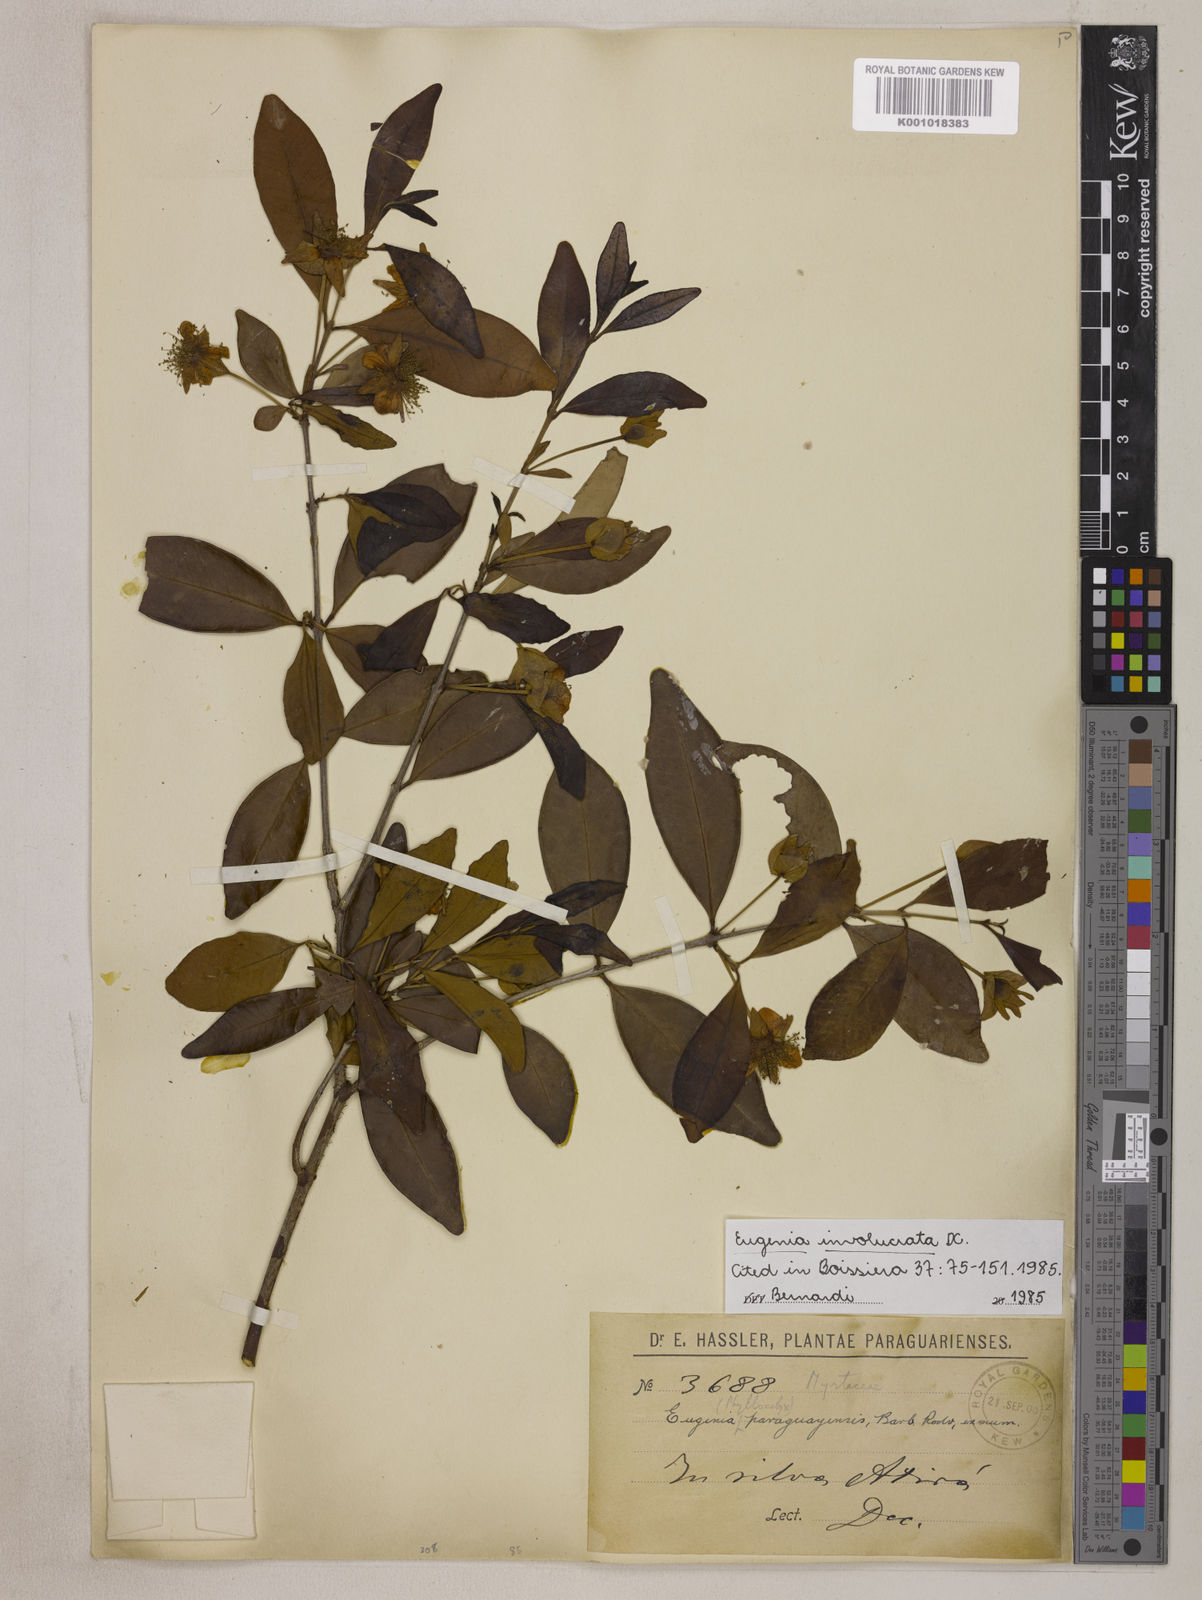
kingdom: Plantae
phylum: Tracheophyta
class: Magnoliopsida
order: Myrtales
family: Myrtaceae
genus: Eugenia
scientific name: Eugenia involucrata
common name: Cherry-of-the-rio grande
